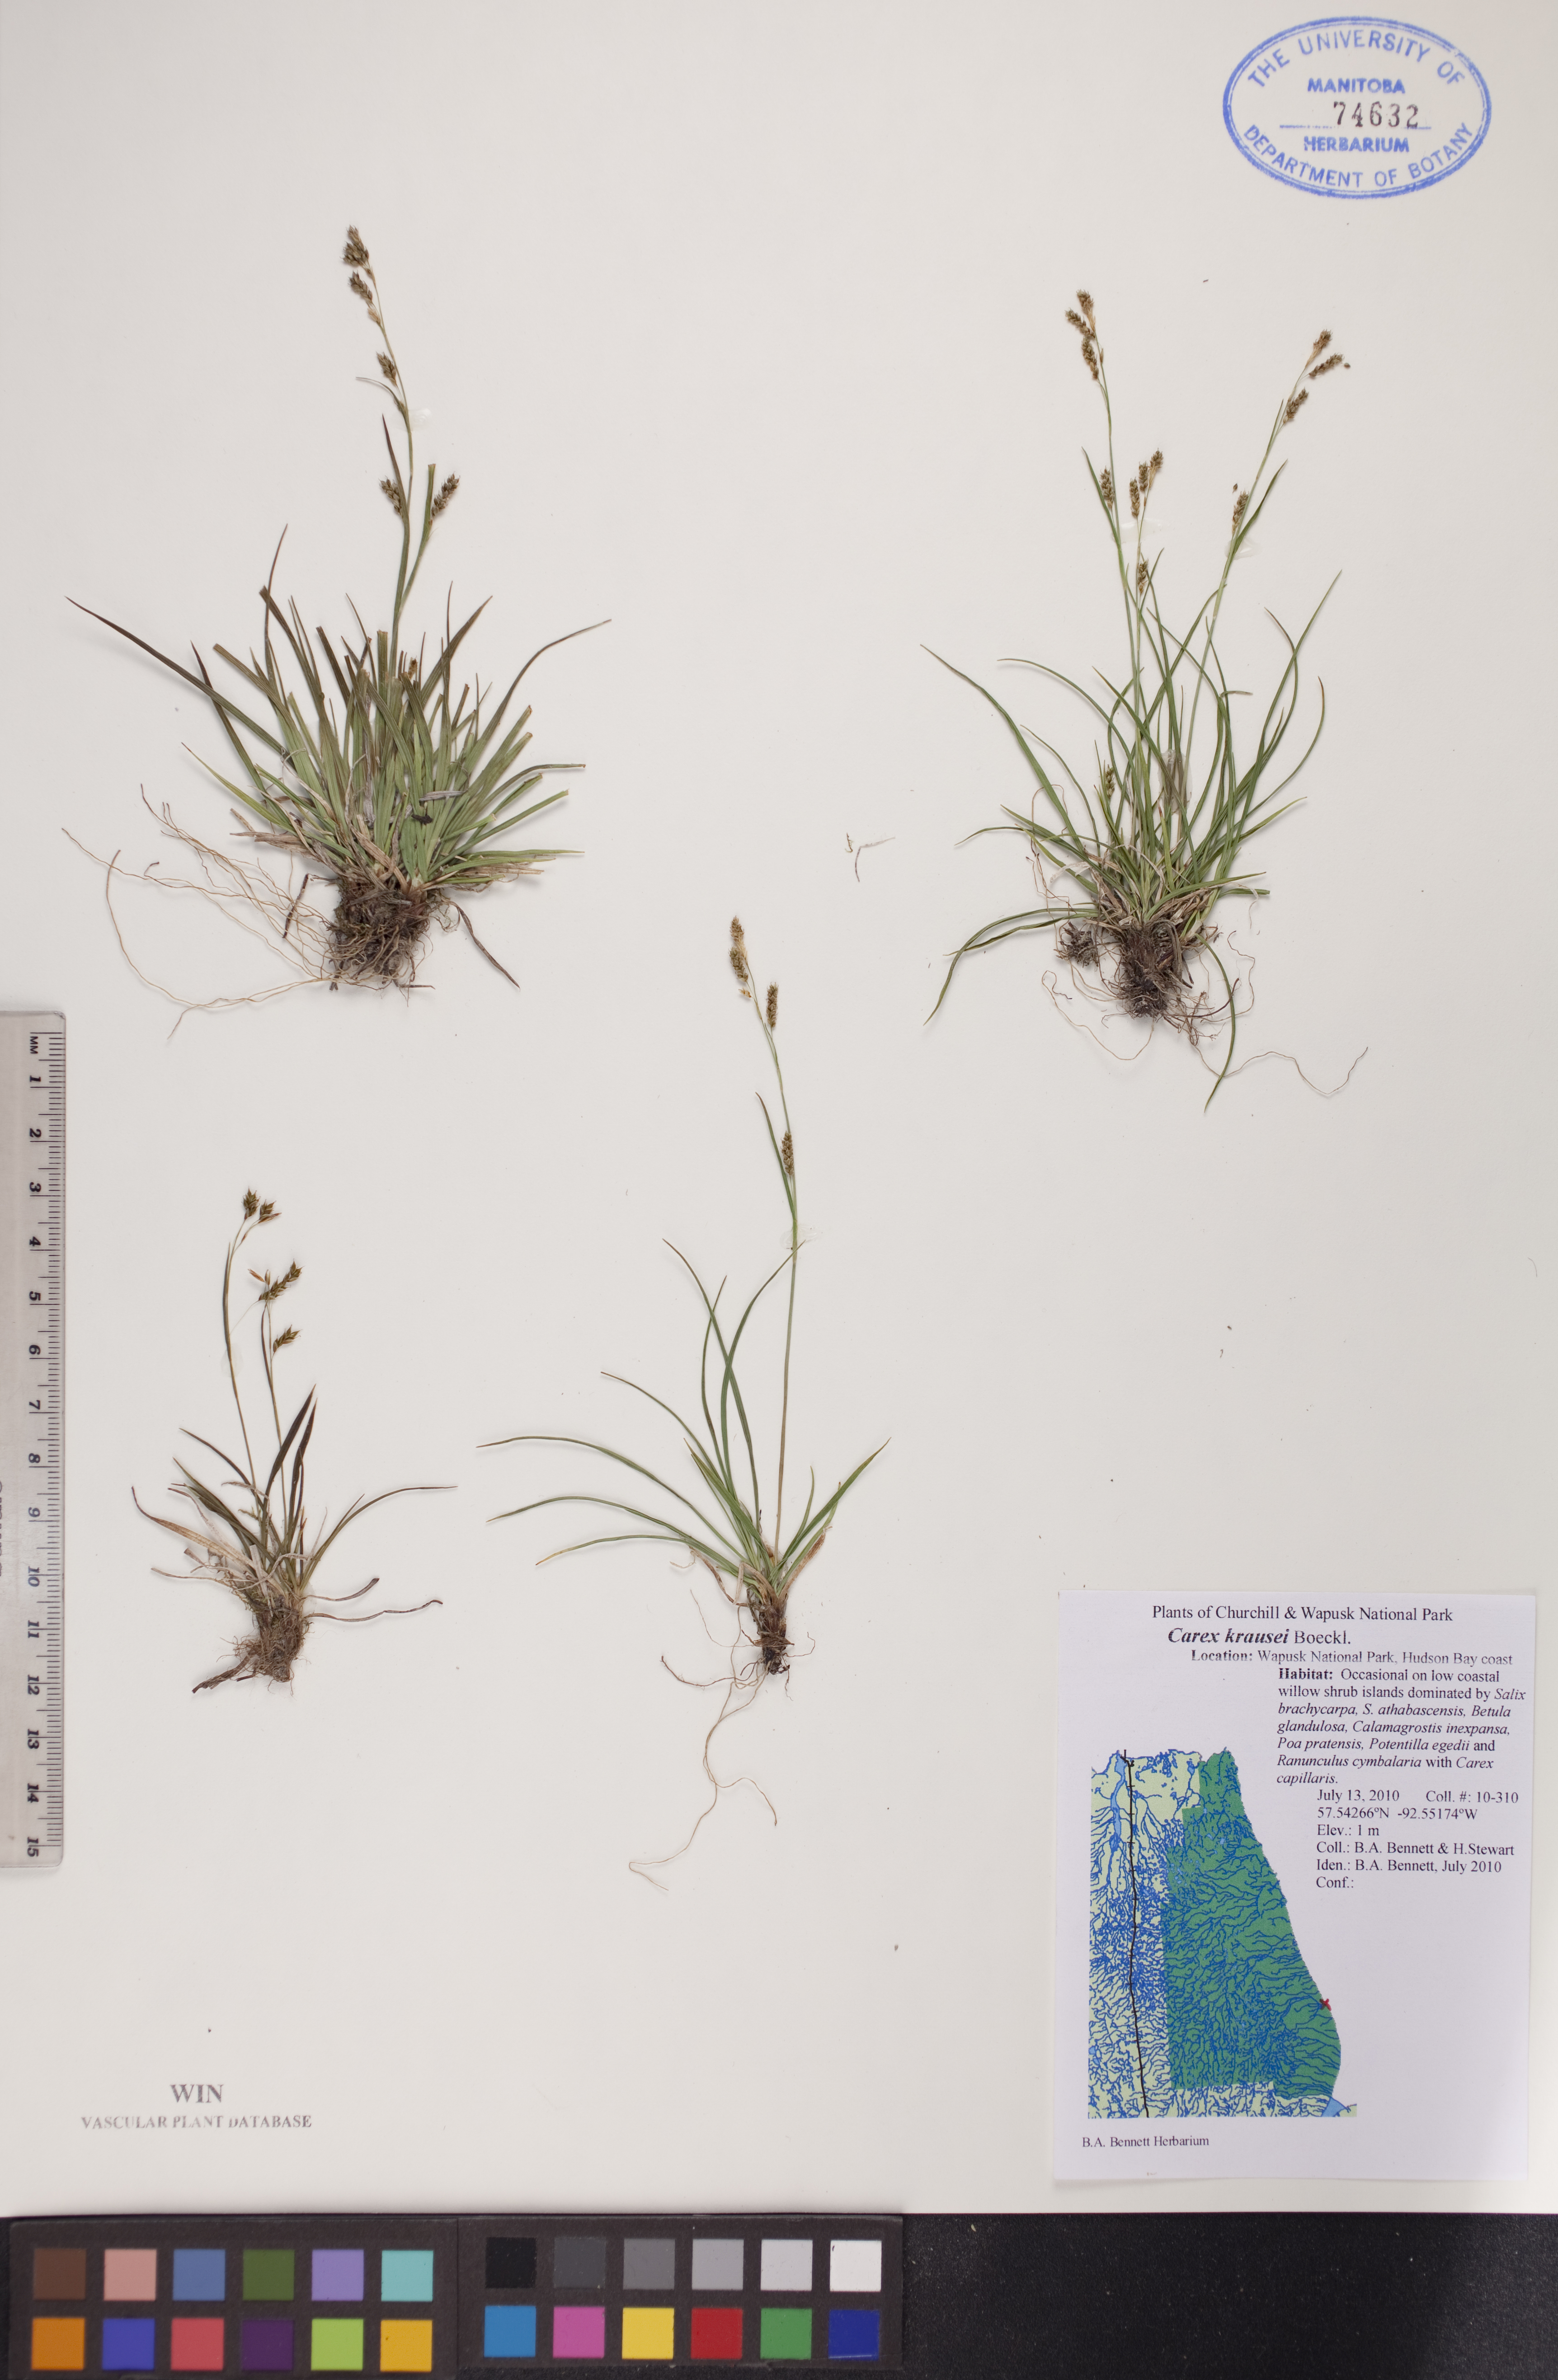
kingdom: Plantae
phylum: Tracheophyta
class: Liliopsida
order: Poales
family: Cyperaceae
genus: Carex
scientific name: Carex krausei
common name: Krause's sedge
